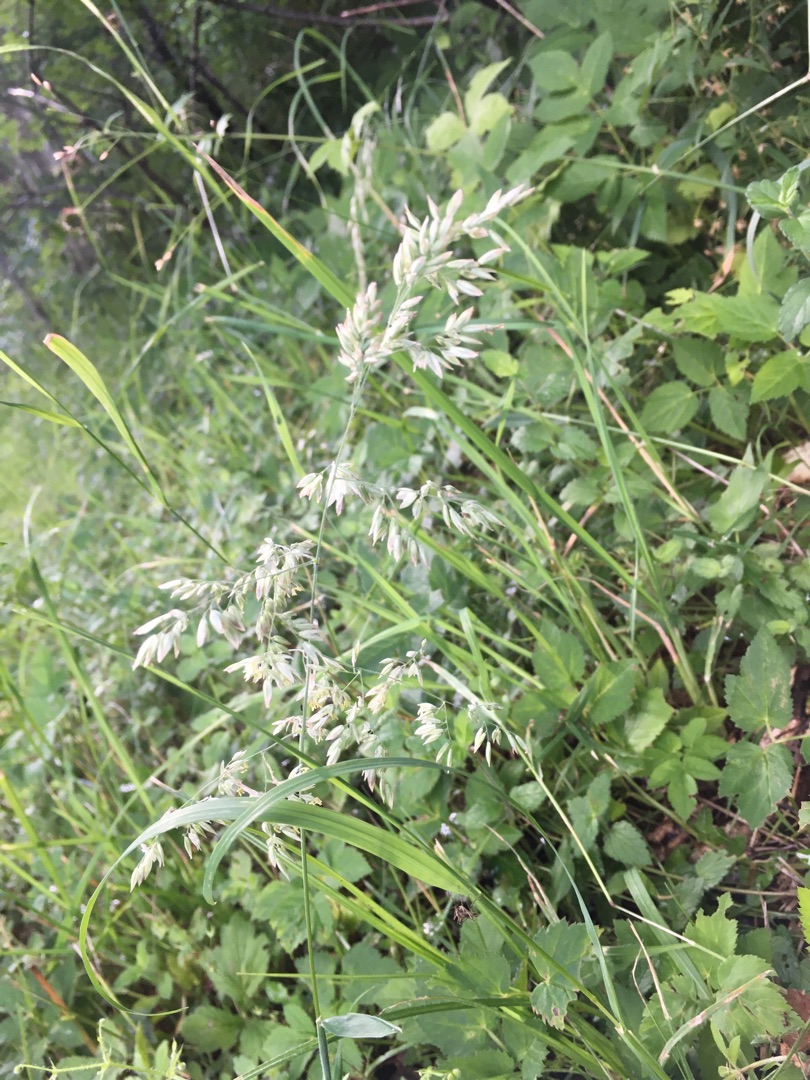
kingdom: Plantae
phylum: Tracheophyta
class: Liliopsida
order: Poales
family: Poaceae
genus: Holcus
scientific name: Holcus lanatus
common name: Fløjlsgræs
